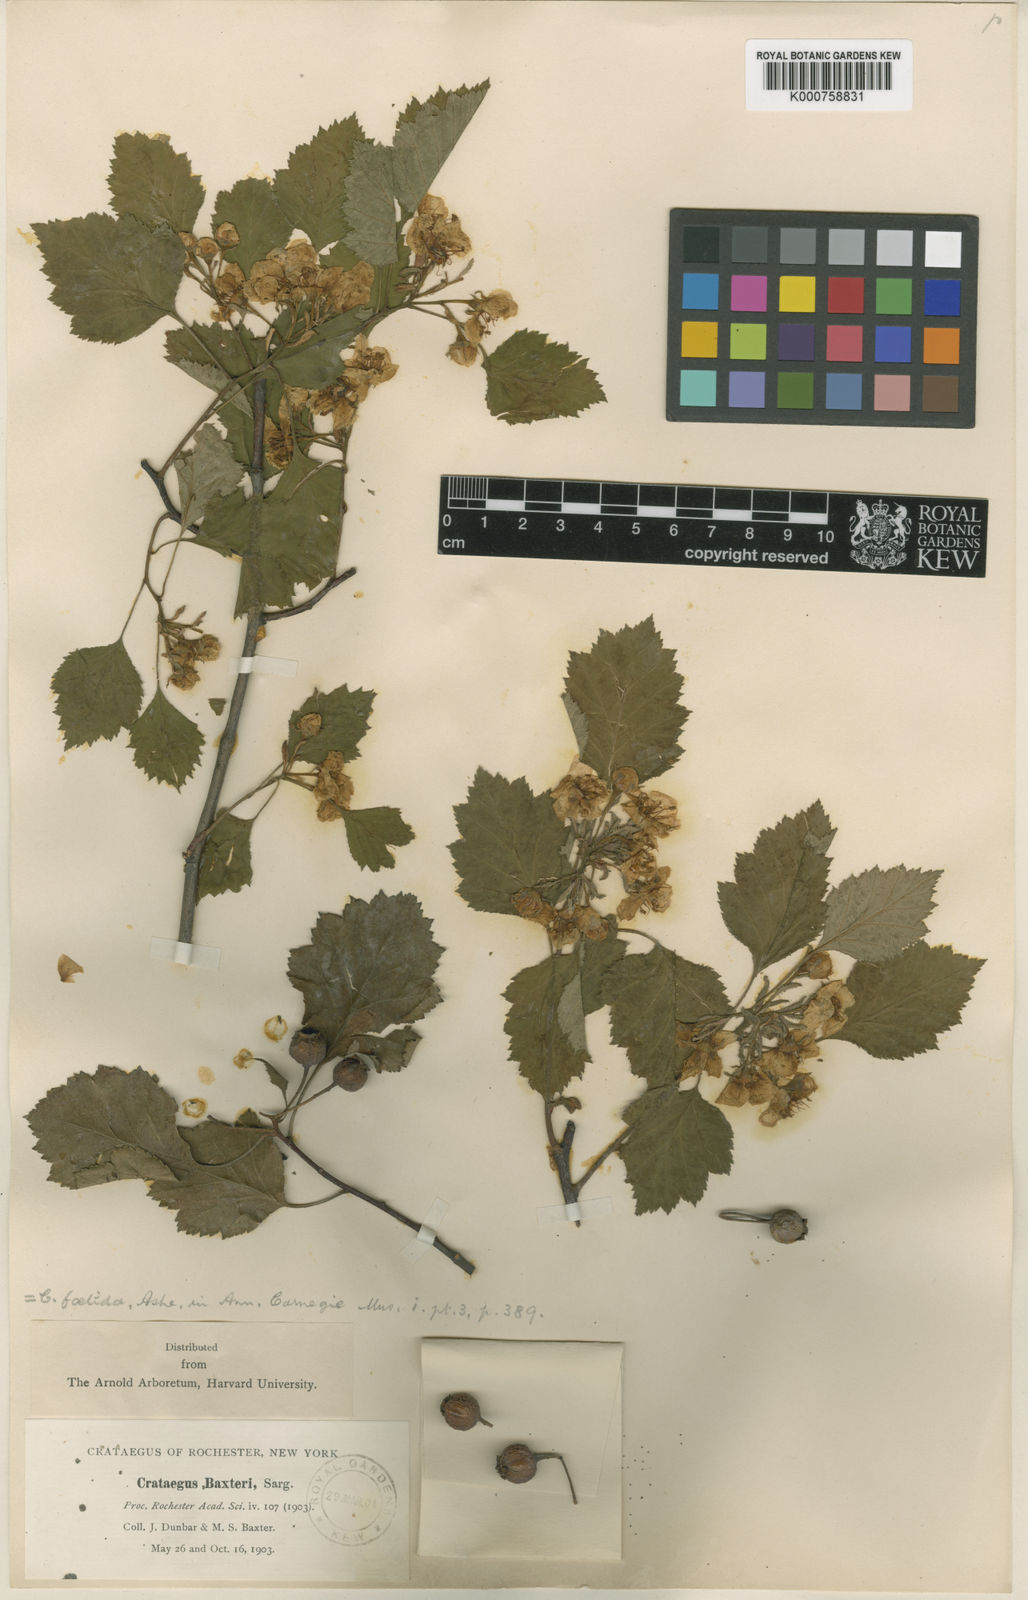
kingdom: Plantae
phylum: Tracheophyta
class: Magnoliopsida
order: Rosales
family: Rosaceae
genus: Crataegus
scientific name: Crataegus baxteri
